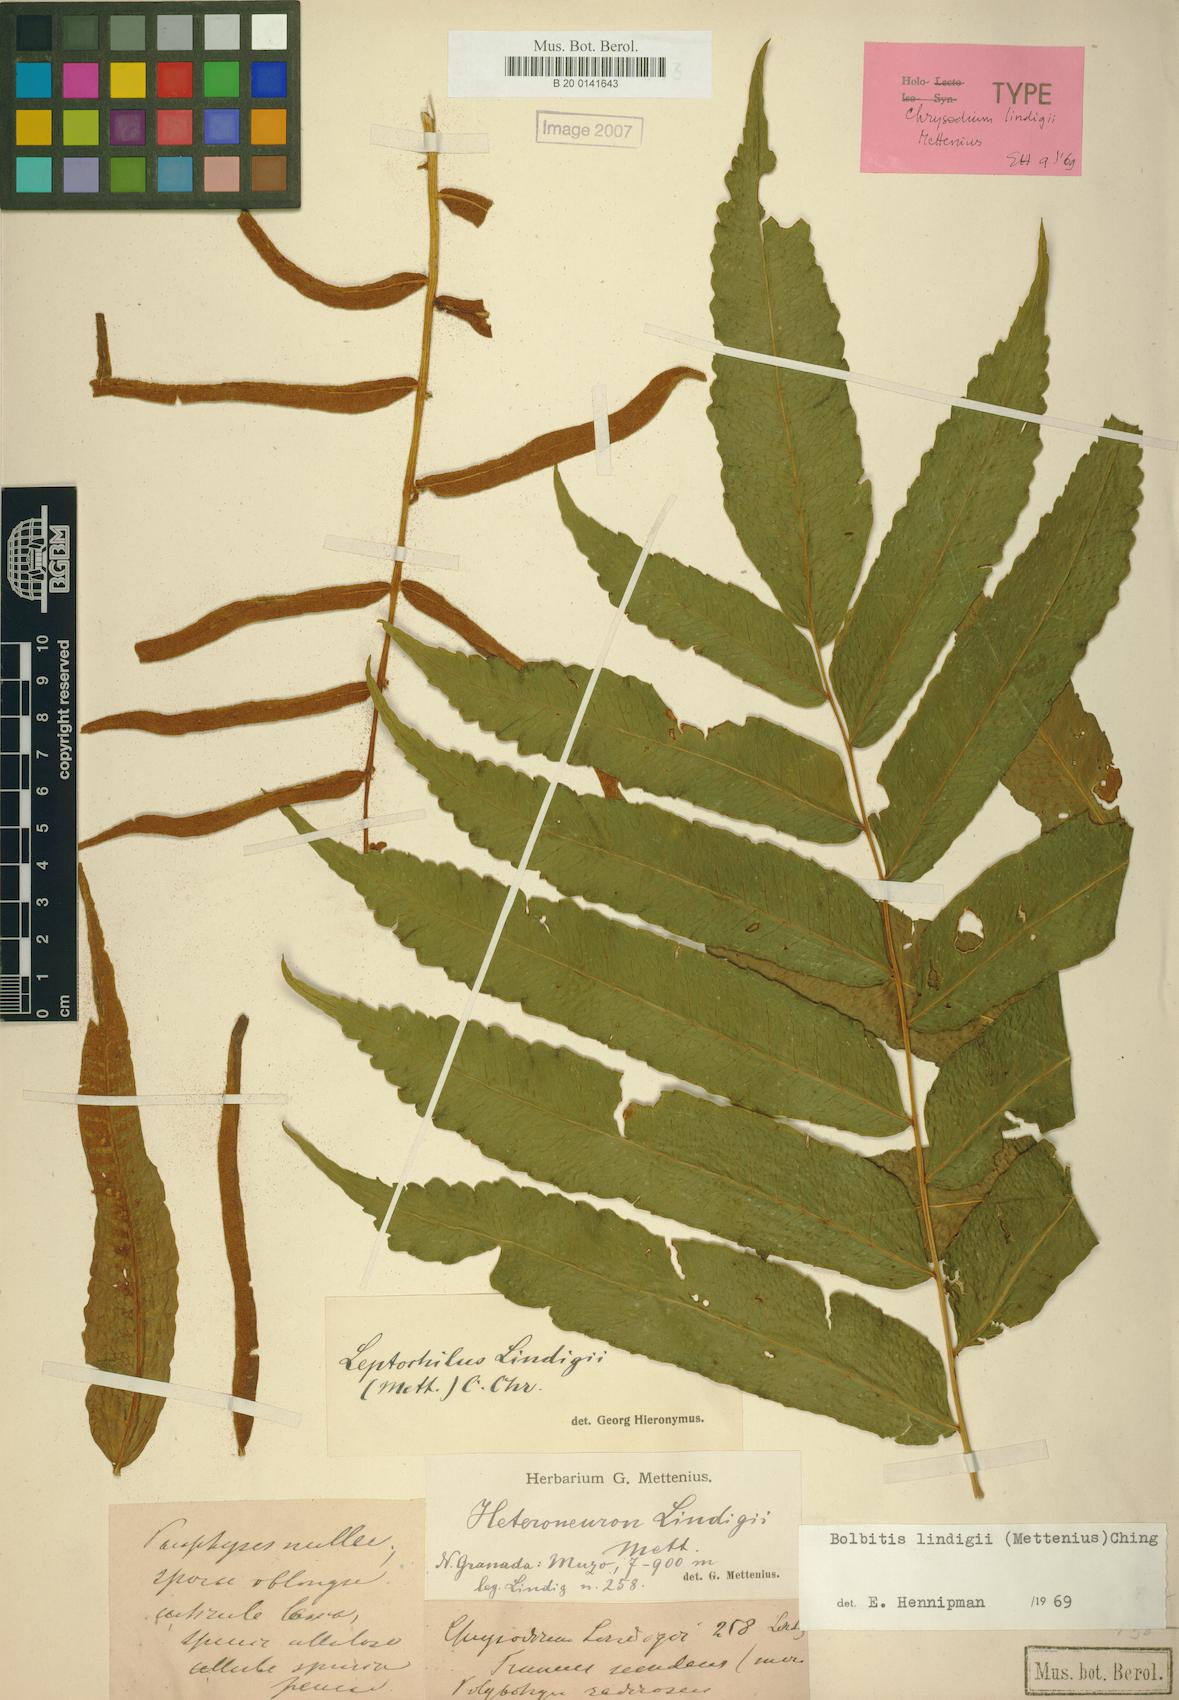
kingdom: Plantae
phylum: Tracheophyta
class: Polypodiopsida
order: Polypodiales
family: Dryopteridaceae
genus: Mickelia
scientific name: Mickelia lindigii
